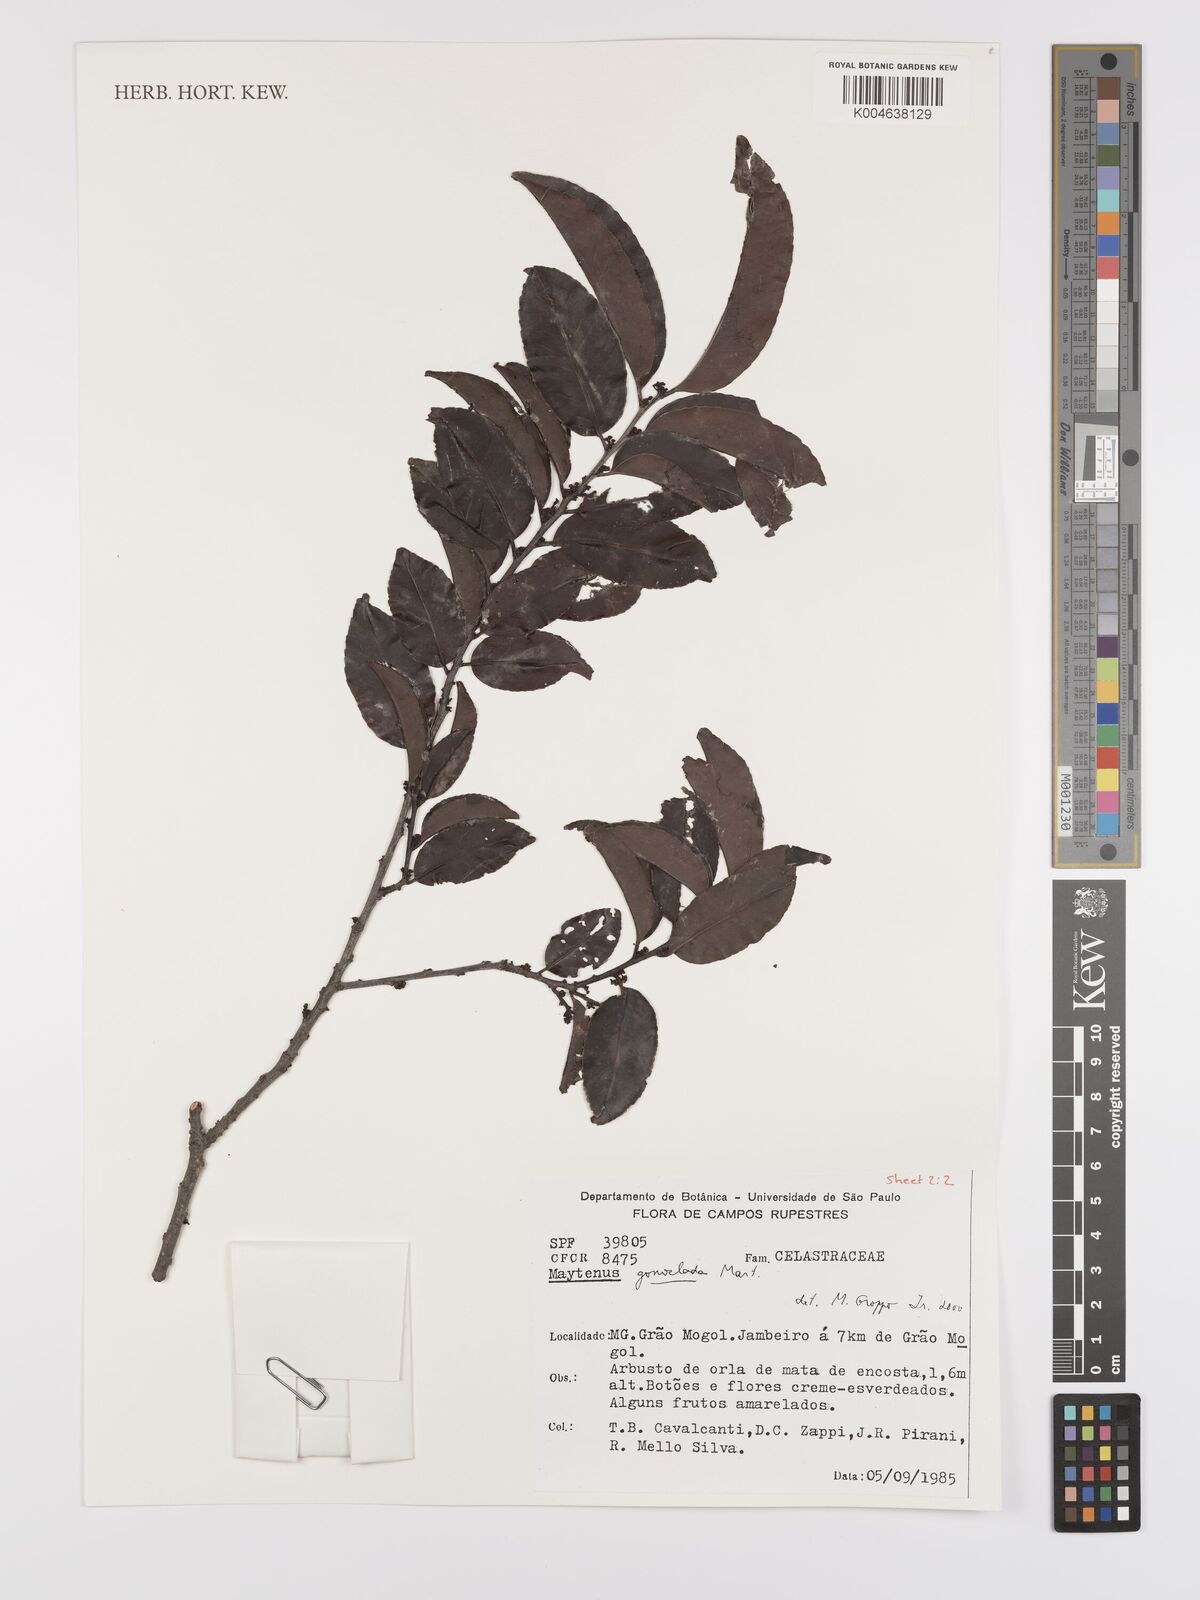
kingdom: Plantae
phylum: Tracheophyta
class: Magnoliopsida
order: Celastrales
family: Celastraceae
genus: Monteverdia
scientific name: Monteverdia gonoclada
